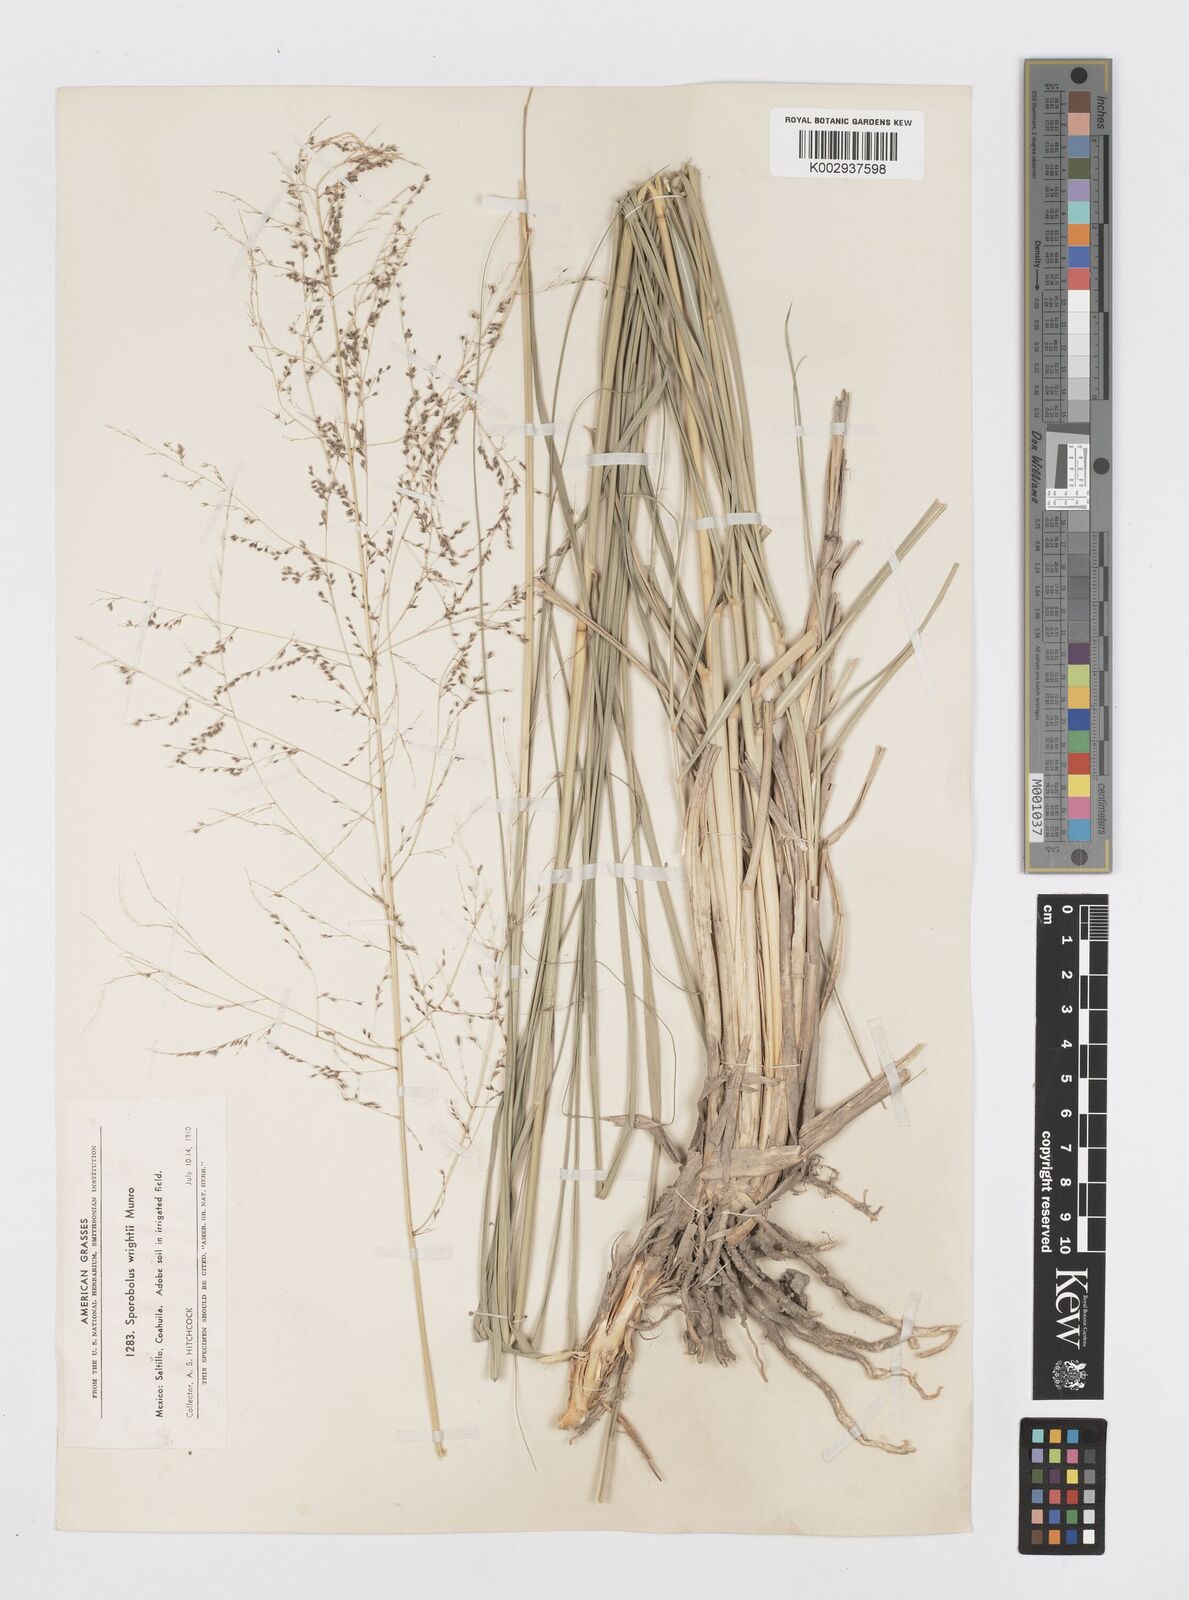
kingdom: Plantae
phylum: Tracheophyta
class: Liliopsida
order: Poales
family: Poaceae
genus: Sporobolus
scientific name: Sporobolus wrightii
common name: Big alkali sacaton
